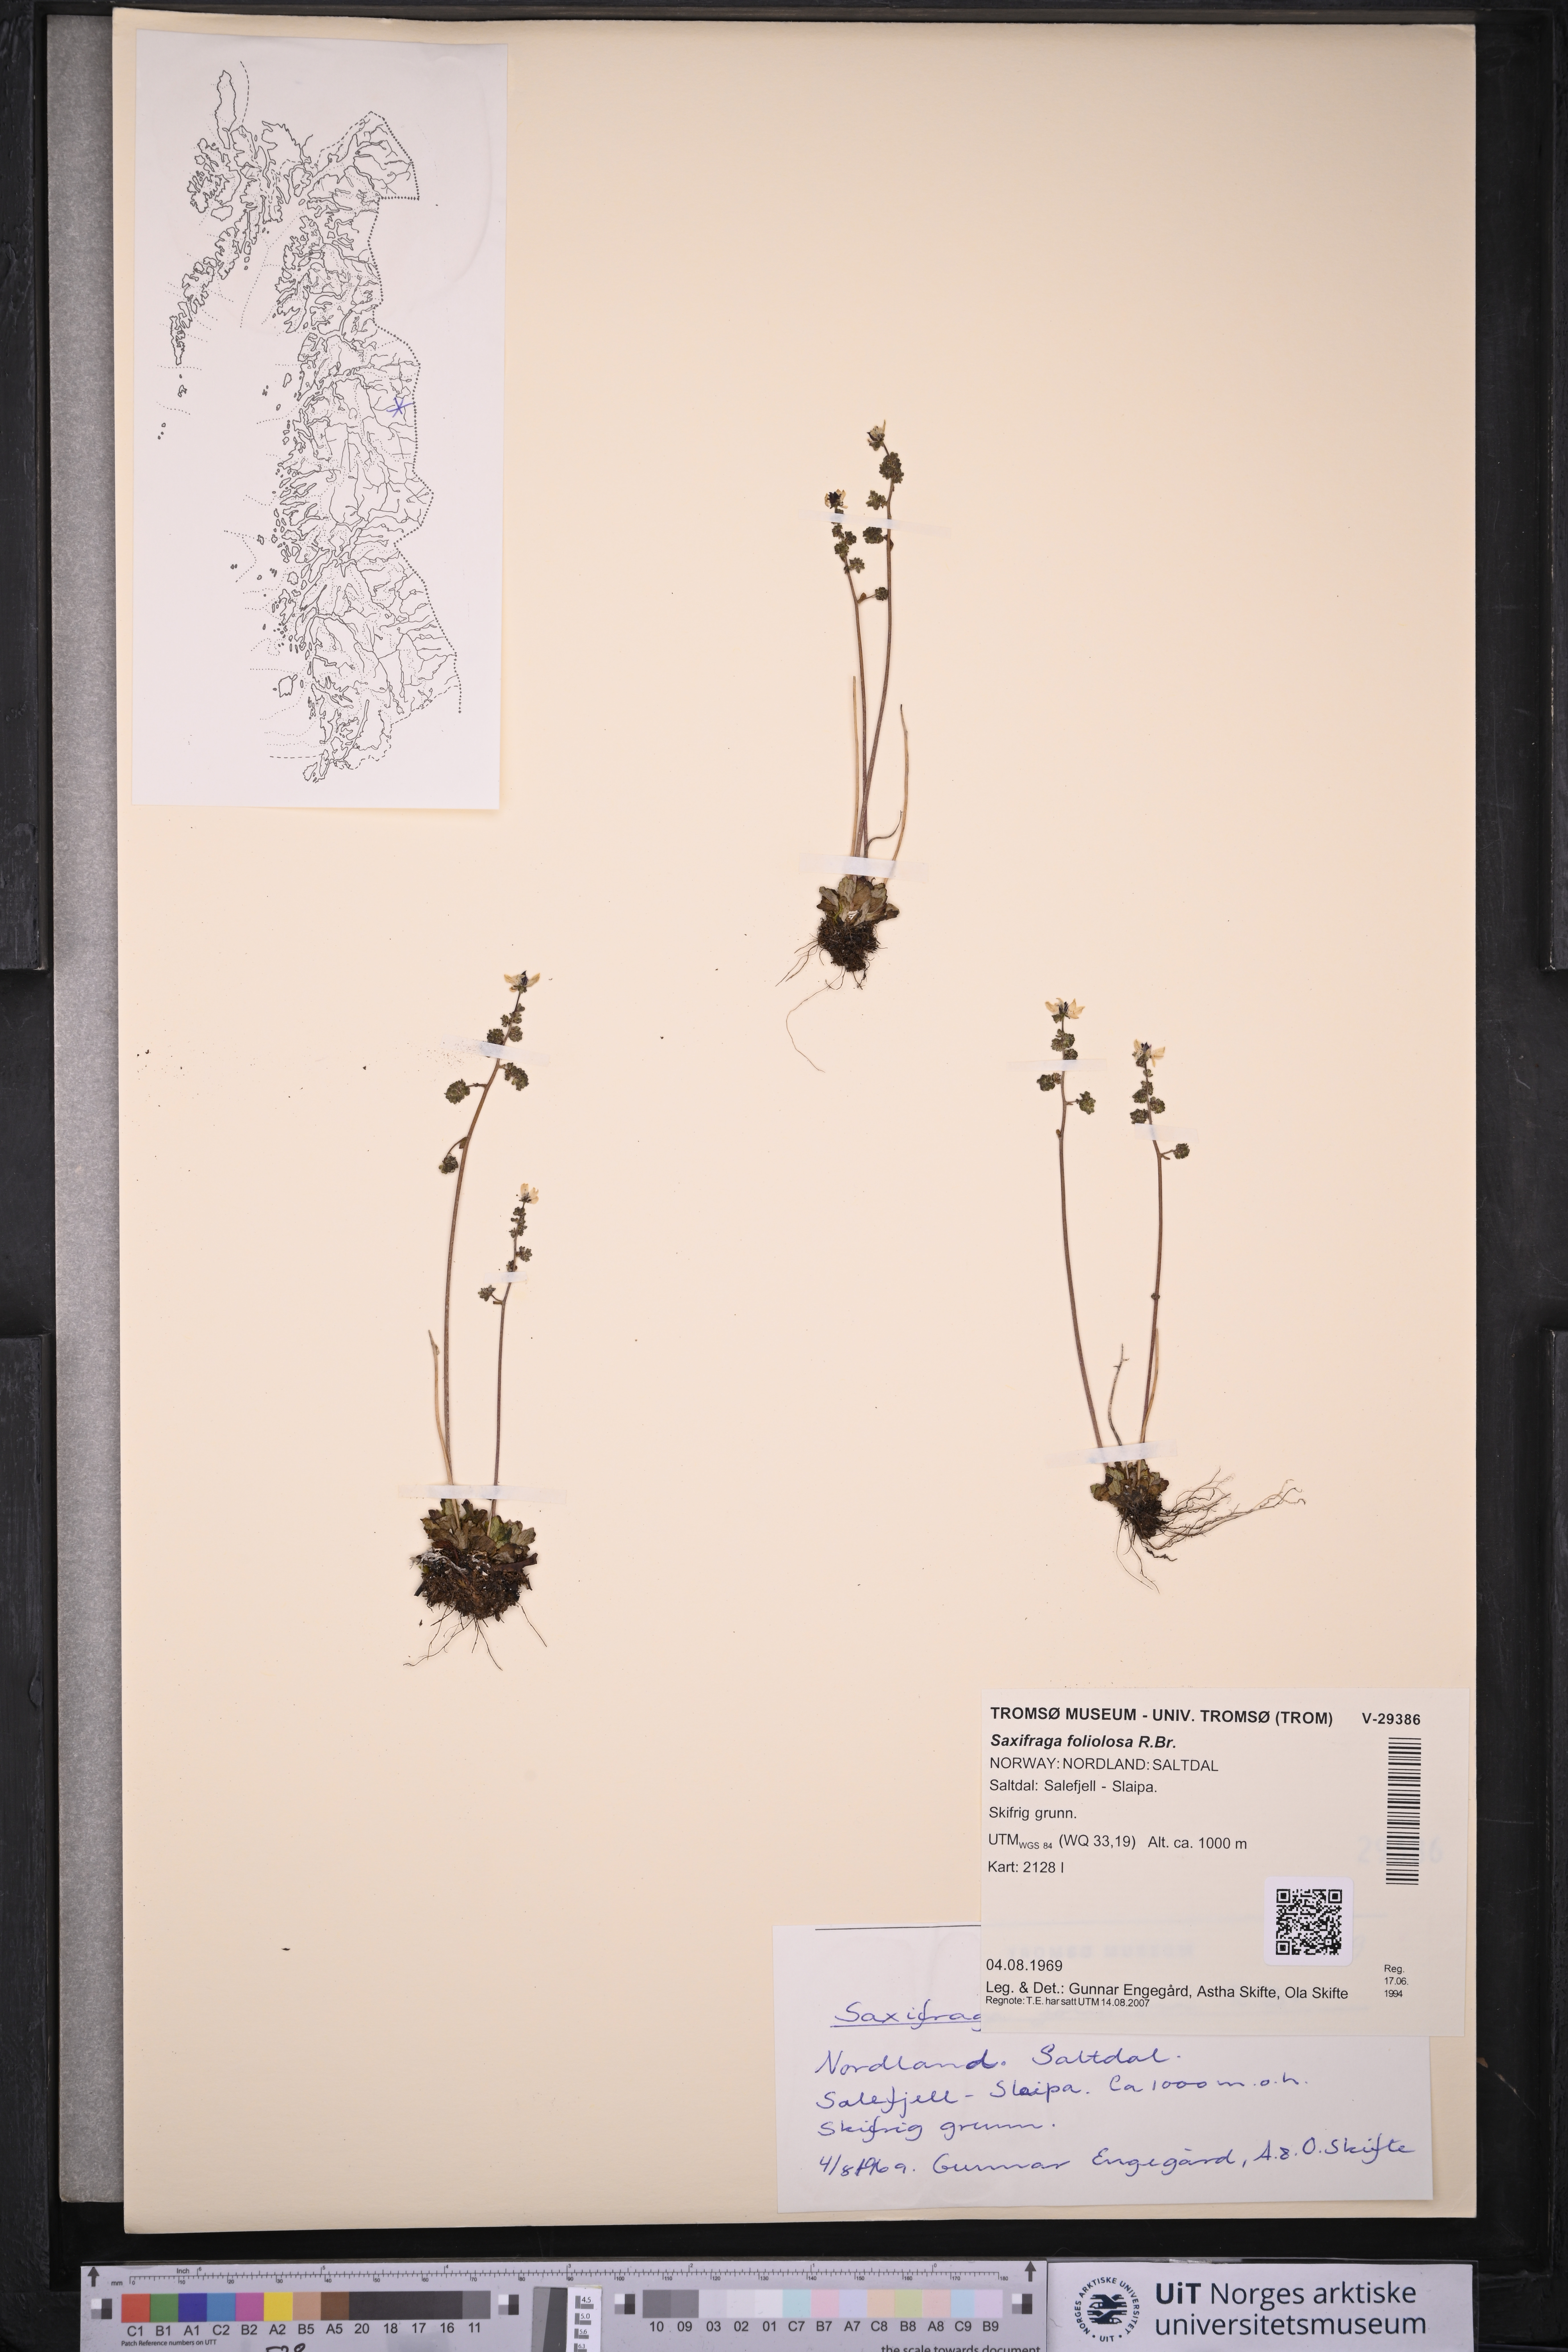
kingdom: Plantae
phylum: Tracheophyta
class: Magnoliopsida
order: Saxifragales
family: Saxifragaceae
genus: Micranthes
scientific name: Micranthes foliolosa
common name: Leafystem saxifrage
